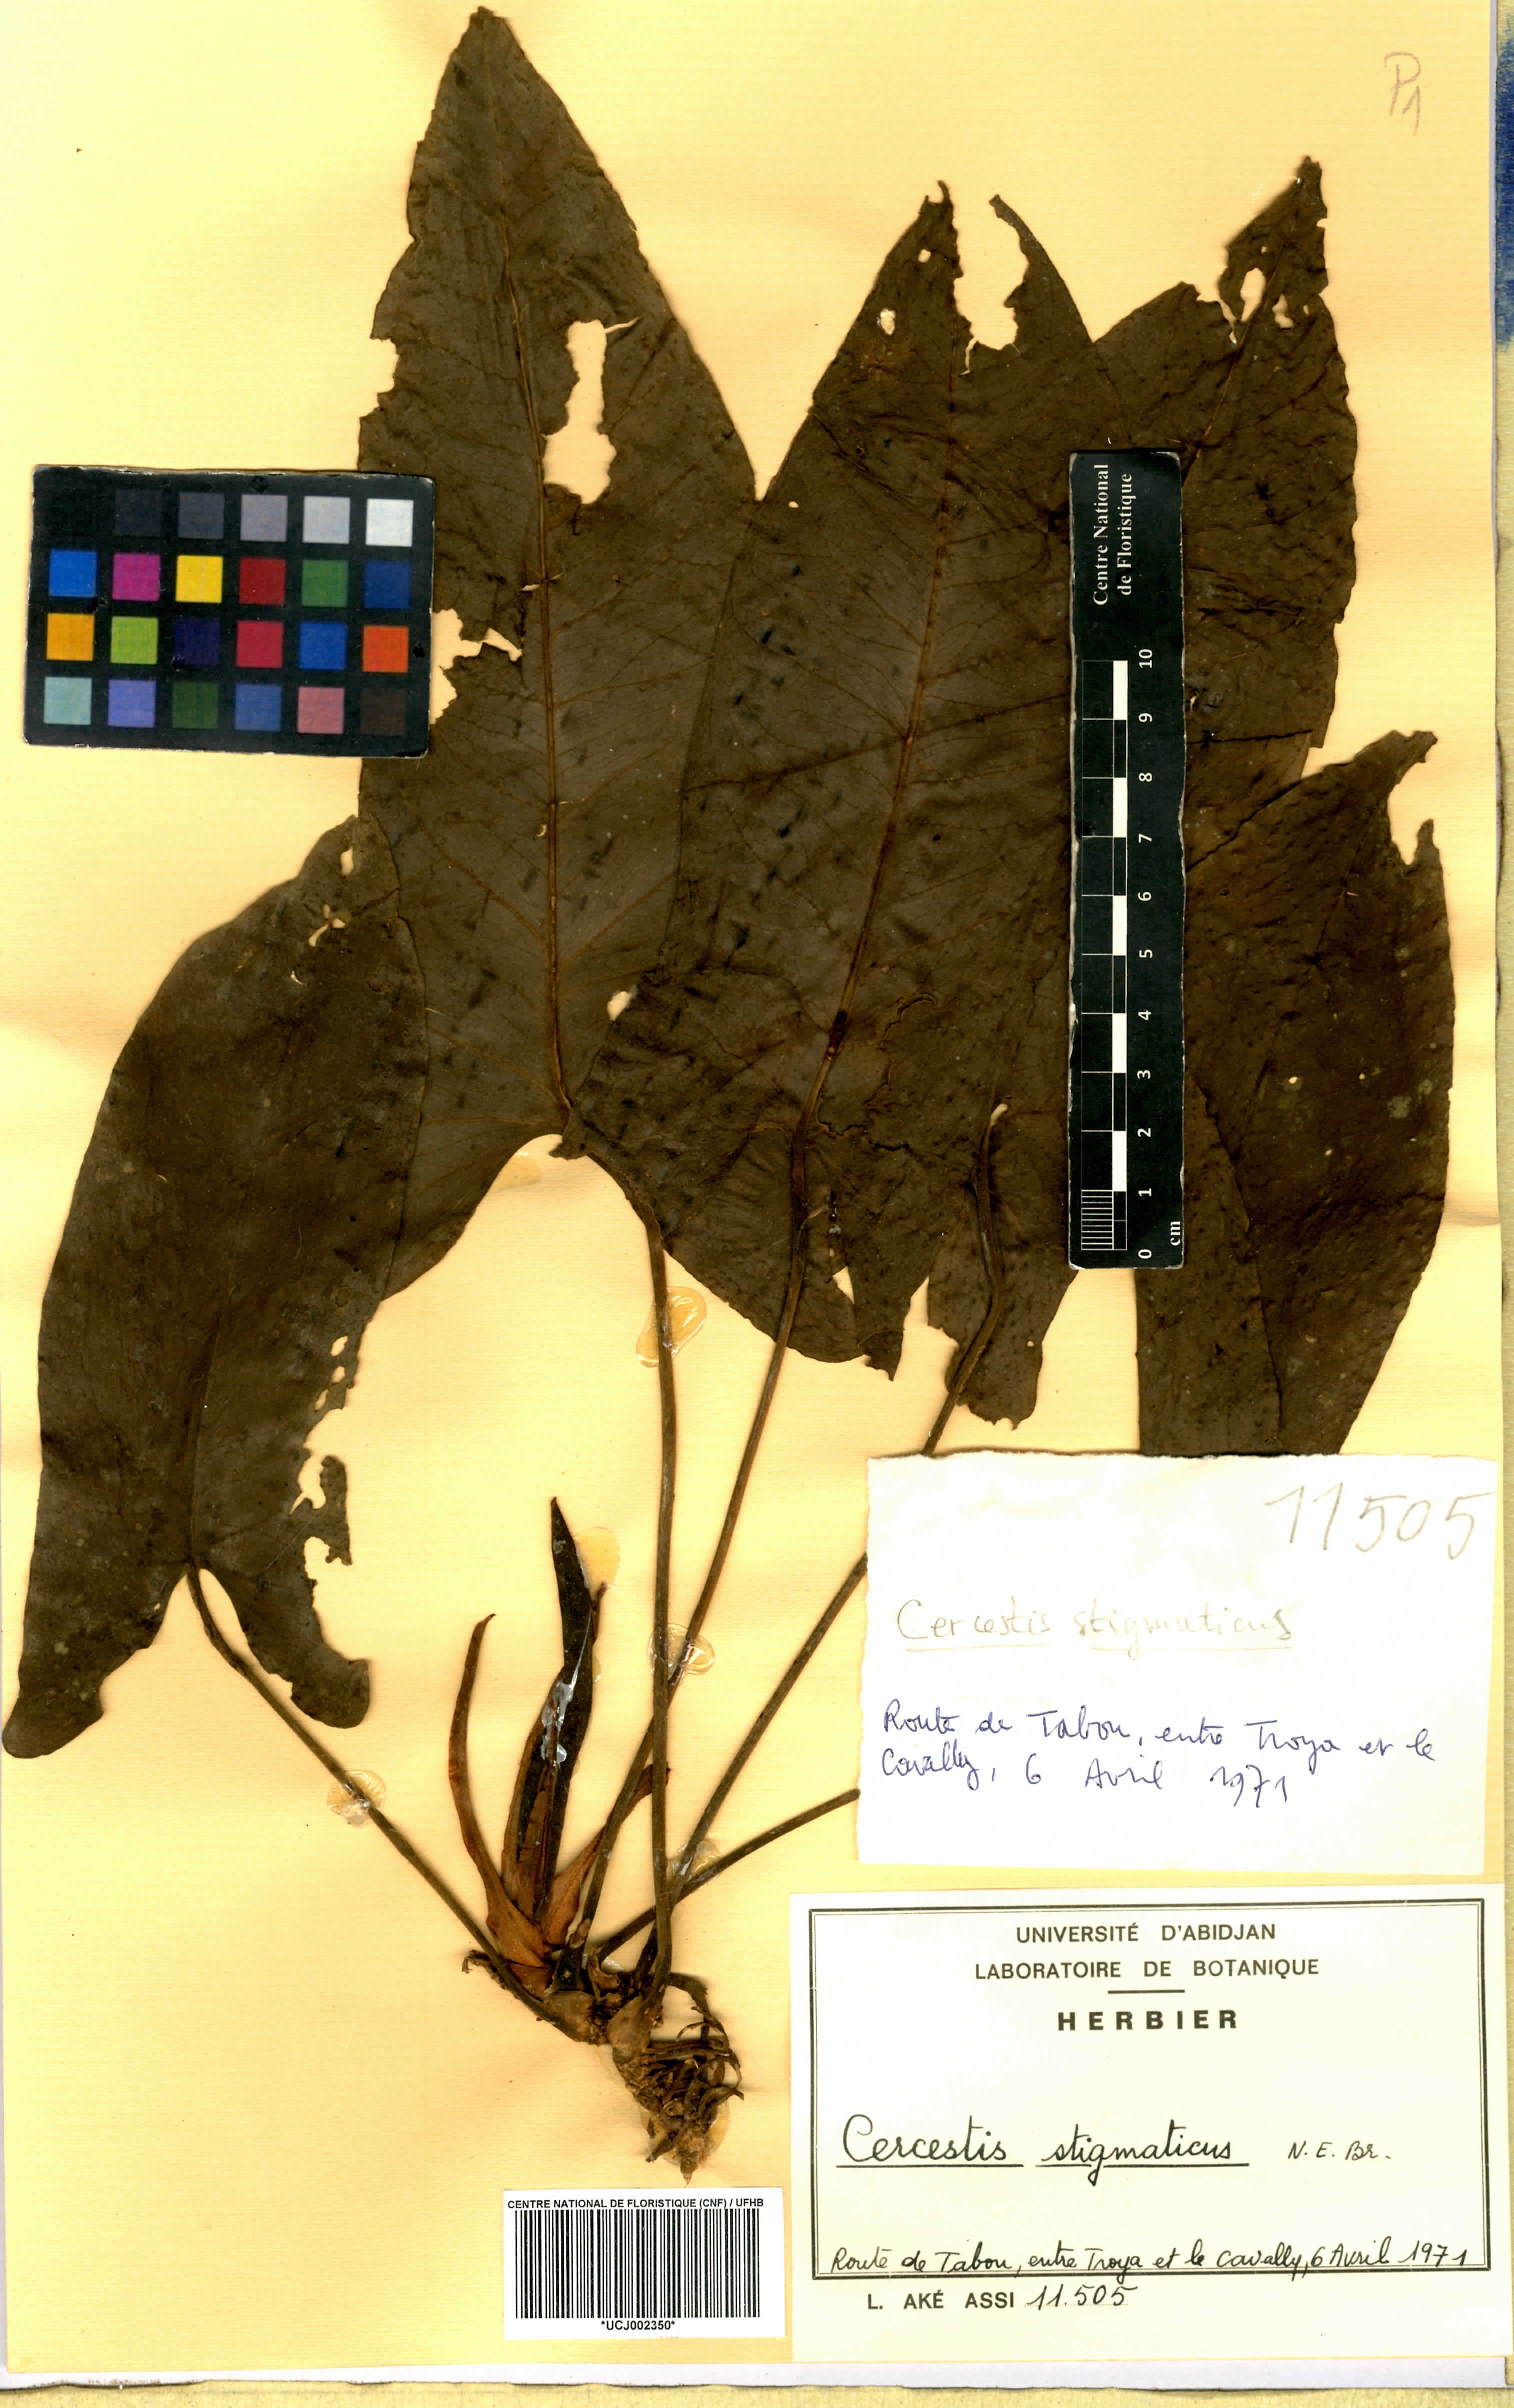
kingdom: Plantae
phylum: Tracheophyta
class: Liliopsida
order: Alismatales
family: Araceae
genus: Cercestis
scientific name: Cercestis dinklagei
